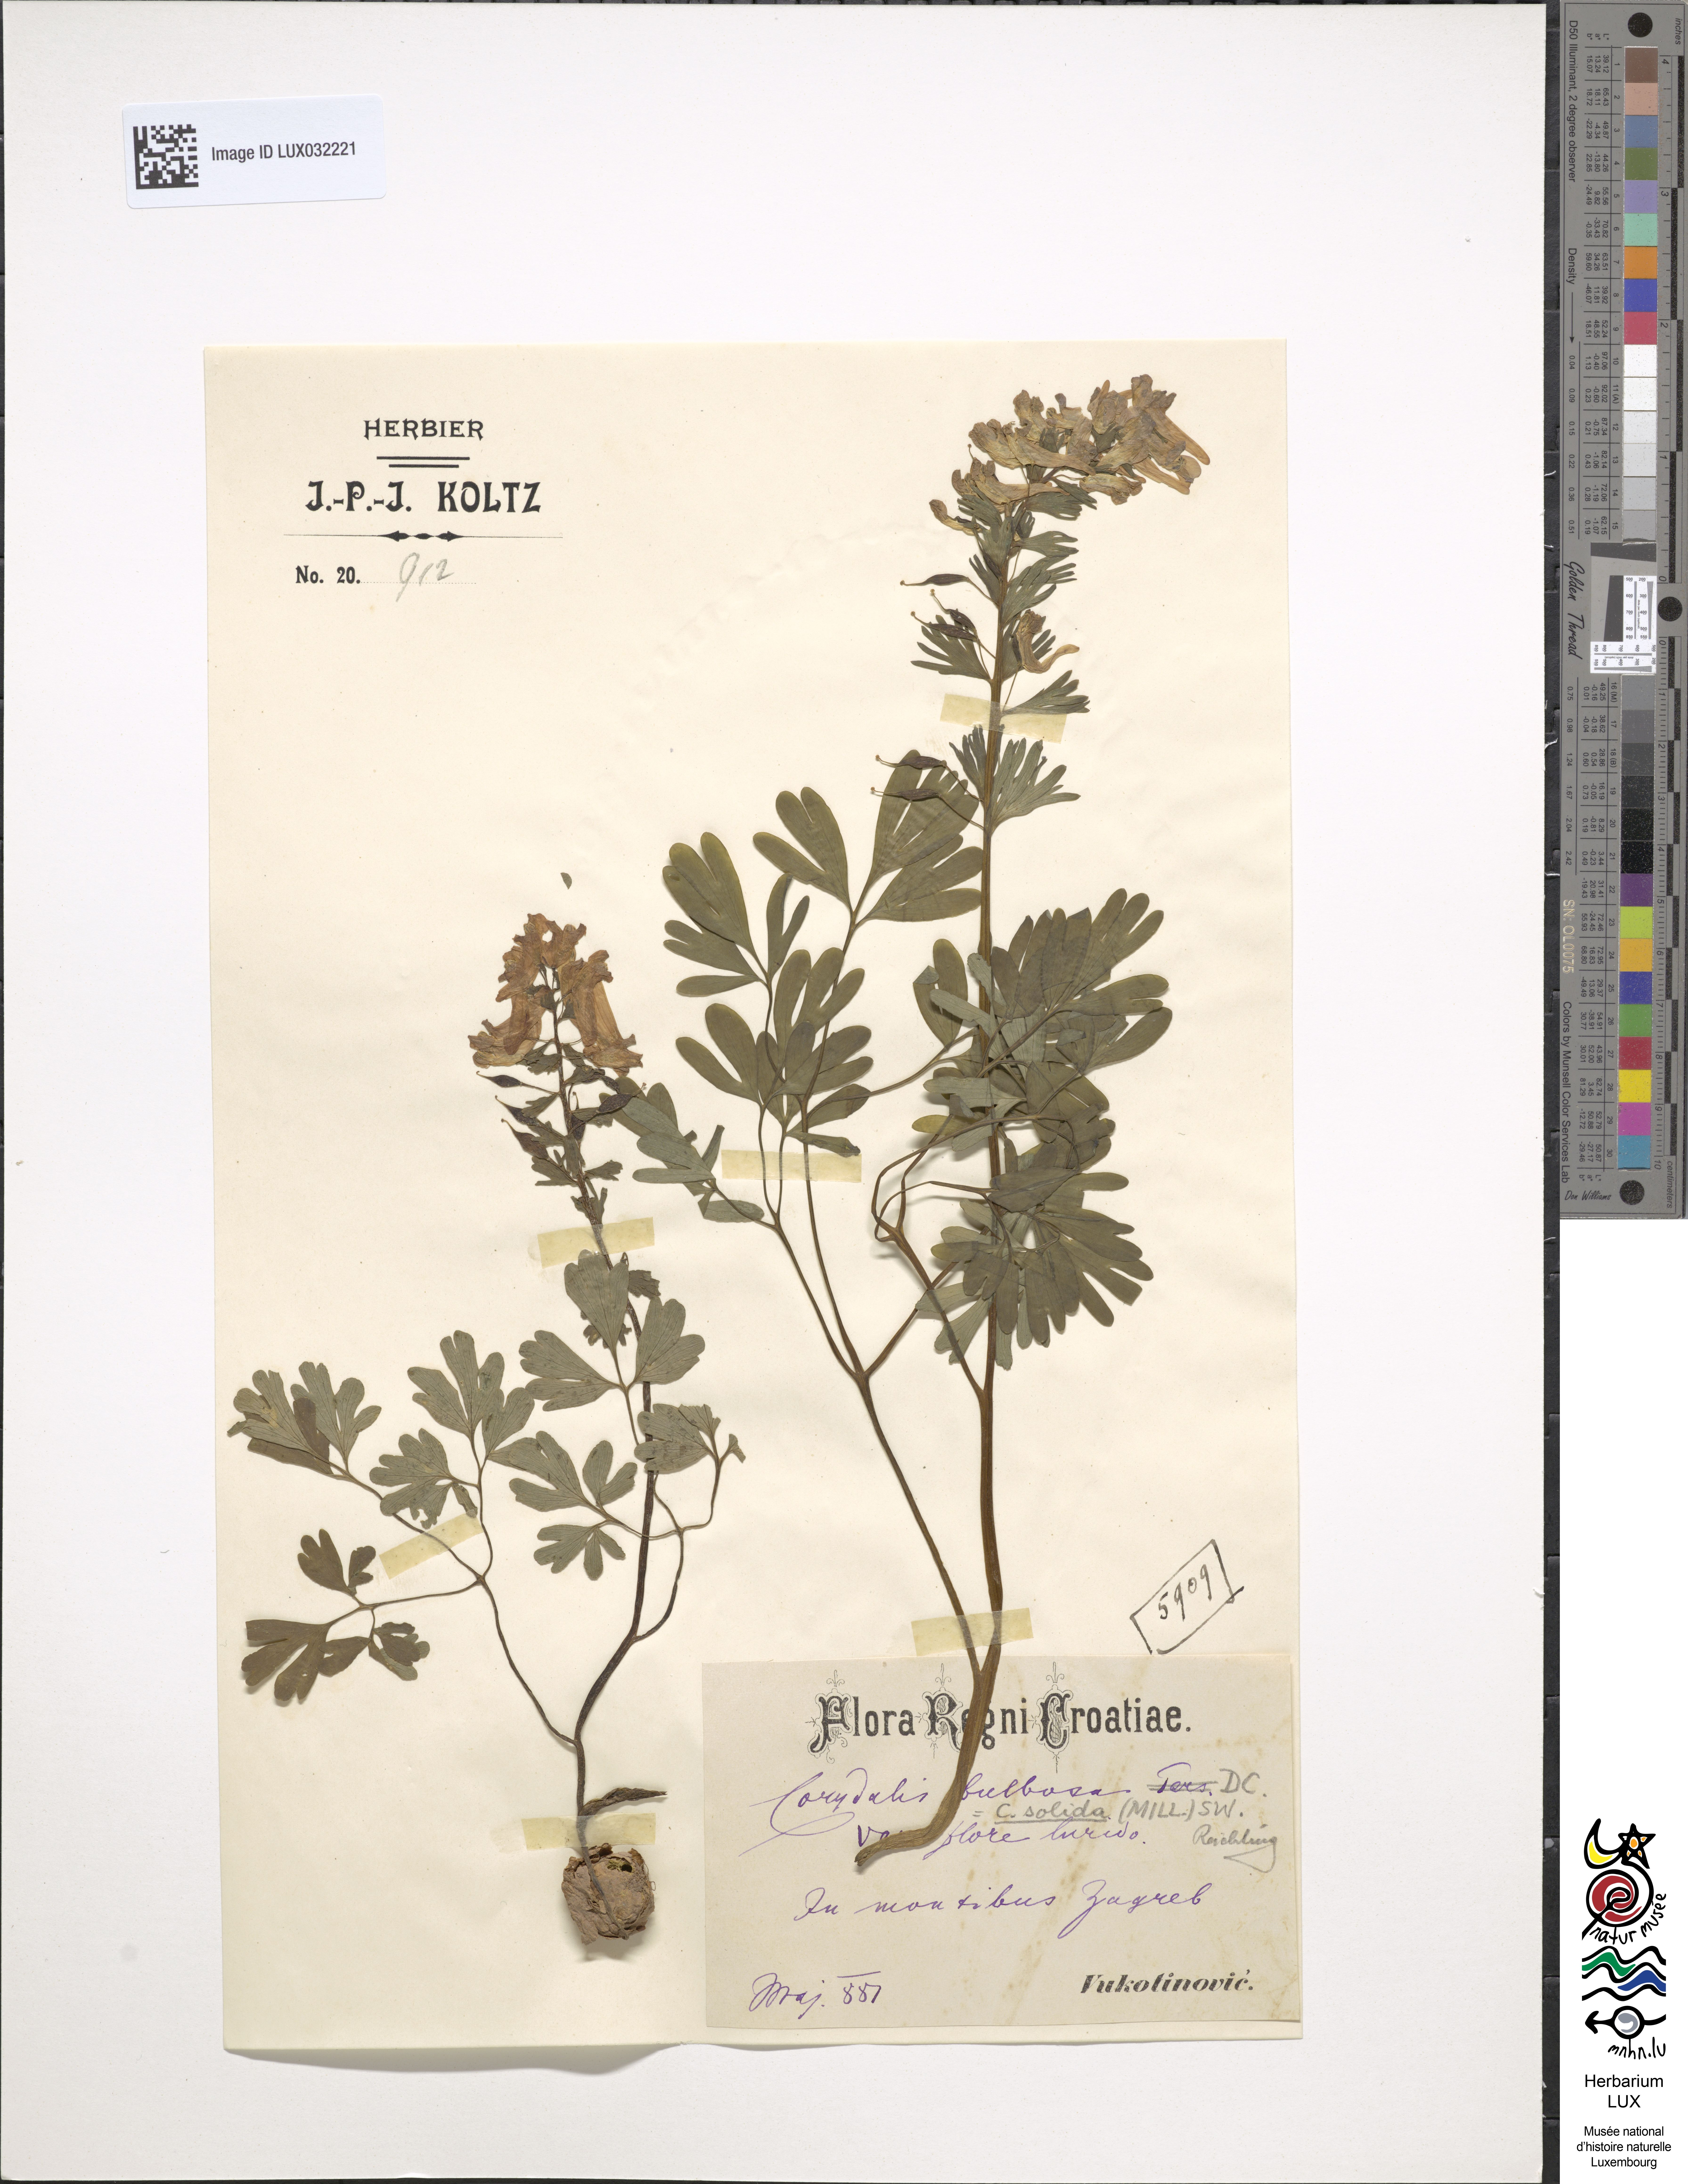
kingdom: Plantae
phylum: Tracheophyta
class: Magnoliopsida
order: Ranunculales
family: Papaveraceae
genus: Corydalis
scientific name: Corydalis solida
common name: Bird-in-a-bush
